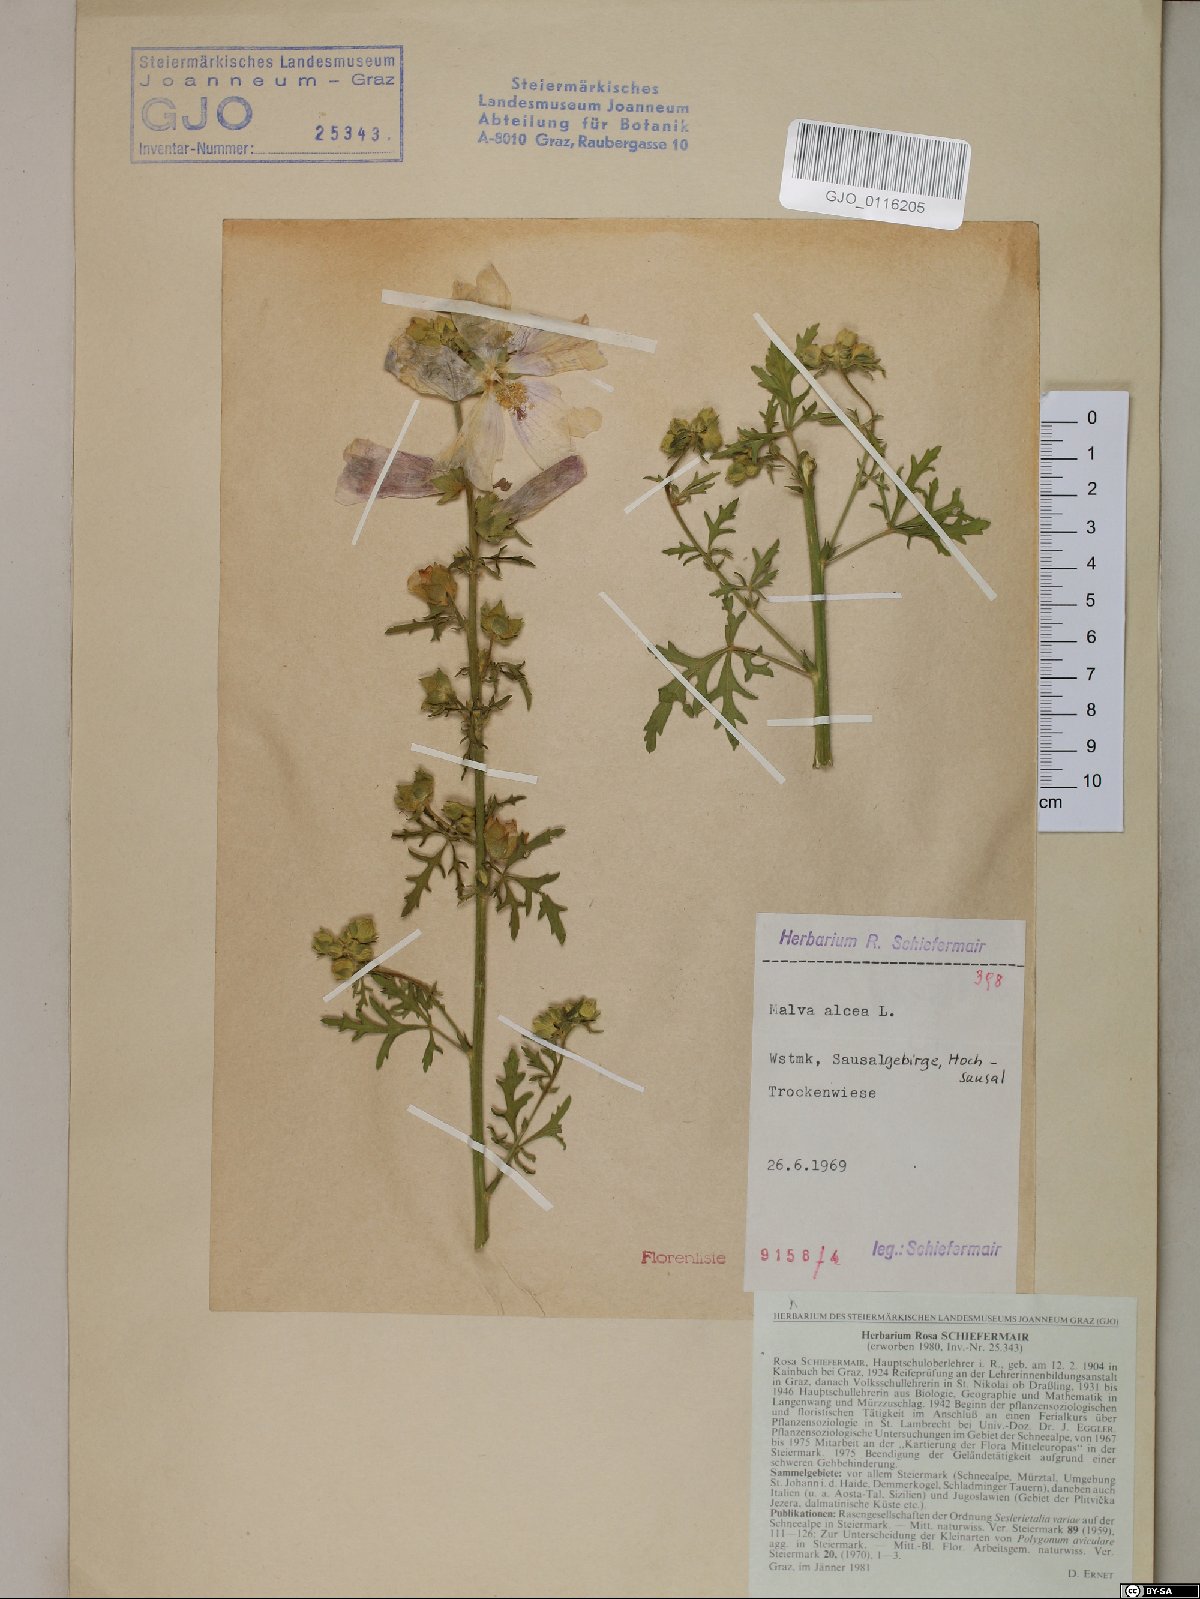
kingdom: Plantae
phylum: Tracheophyta
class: Magnoliopsida
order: Malvales
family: Malvaceae
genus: Malva
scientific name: Malva alcea
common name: Greater musk-mallow
